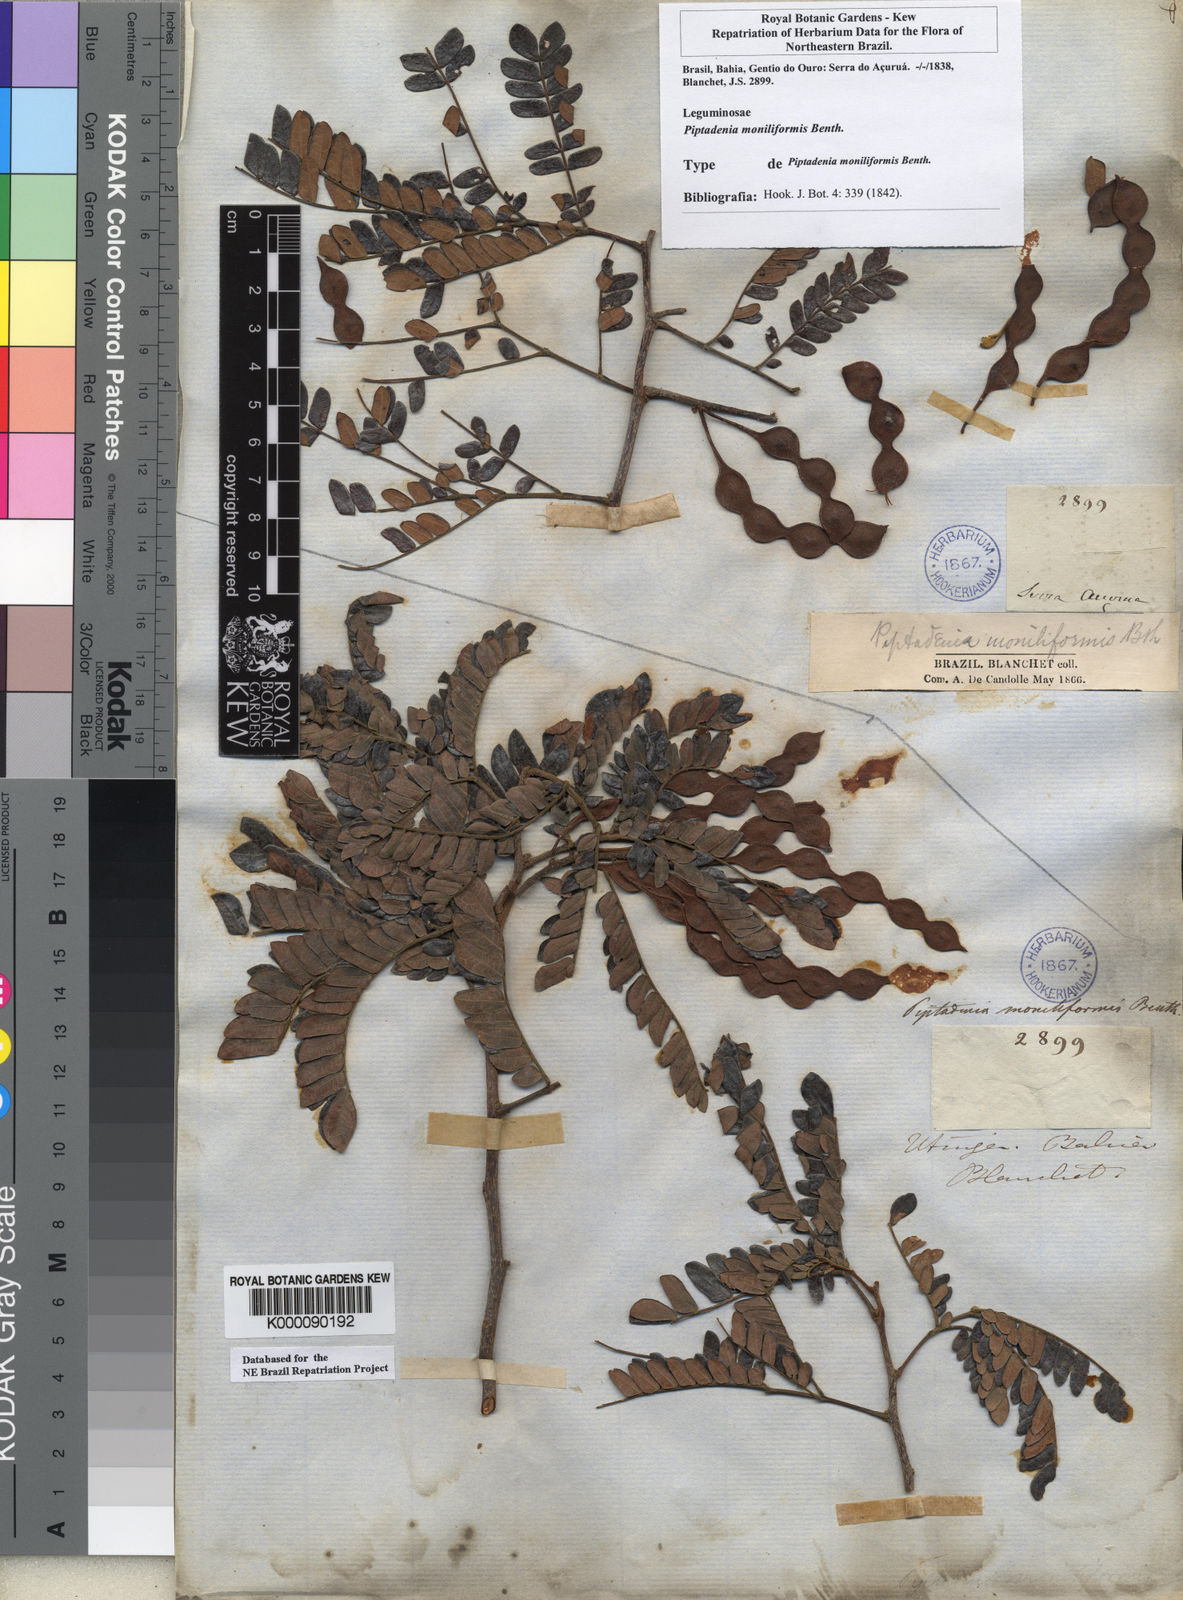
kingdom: Plantae
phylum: Tracheophyta
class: Magnoliopsida
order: Fabales
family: Fabaceae
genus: Pityrocarpa
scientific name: Pityrocarpa moniliformis
